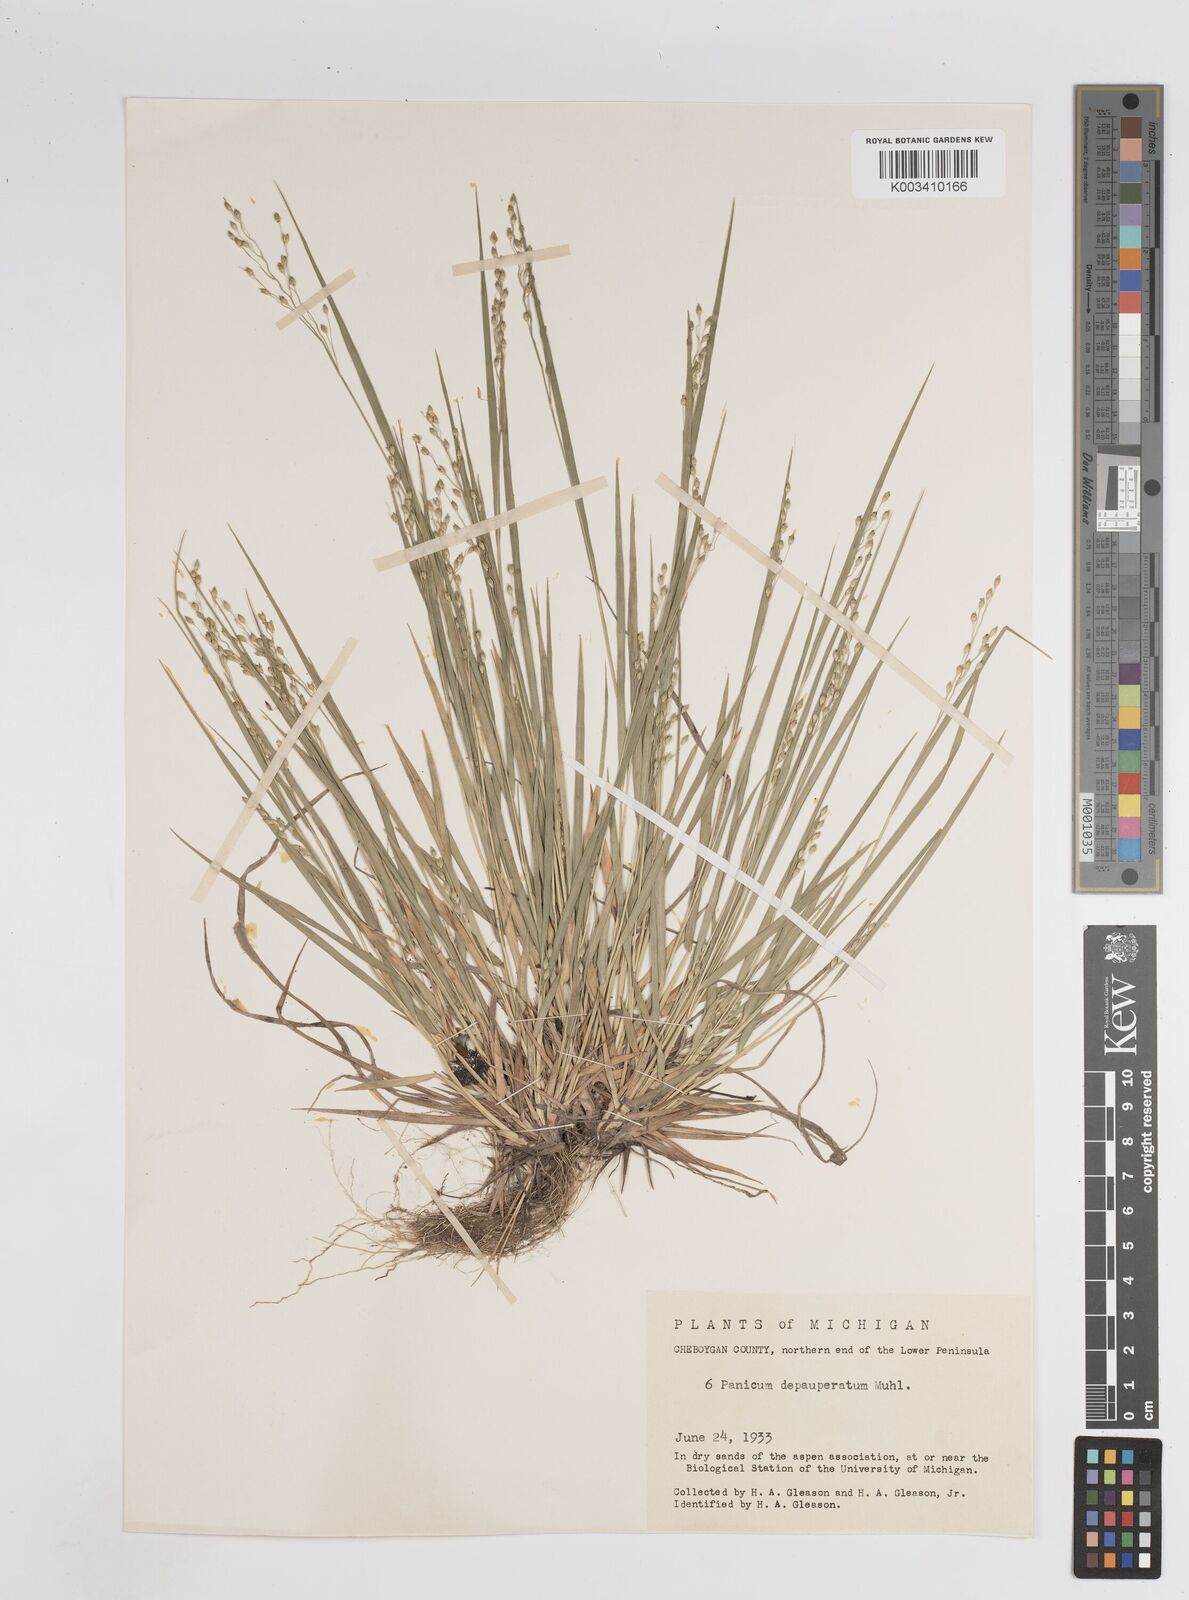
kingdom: Plantae
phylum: Tracheophyta
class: Liliopsida
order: Poales
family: Poaceae
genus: Dichanthelium
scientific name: Dichanthelium depauperatum
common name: Depauperate panicgrass
